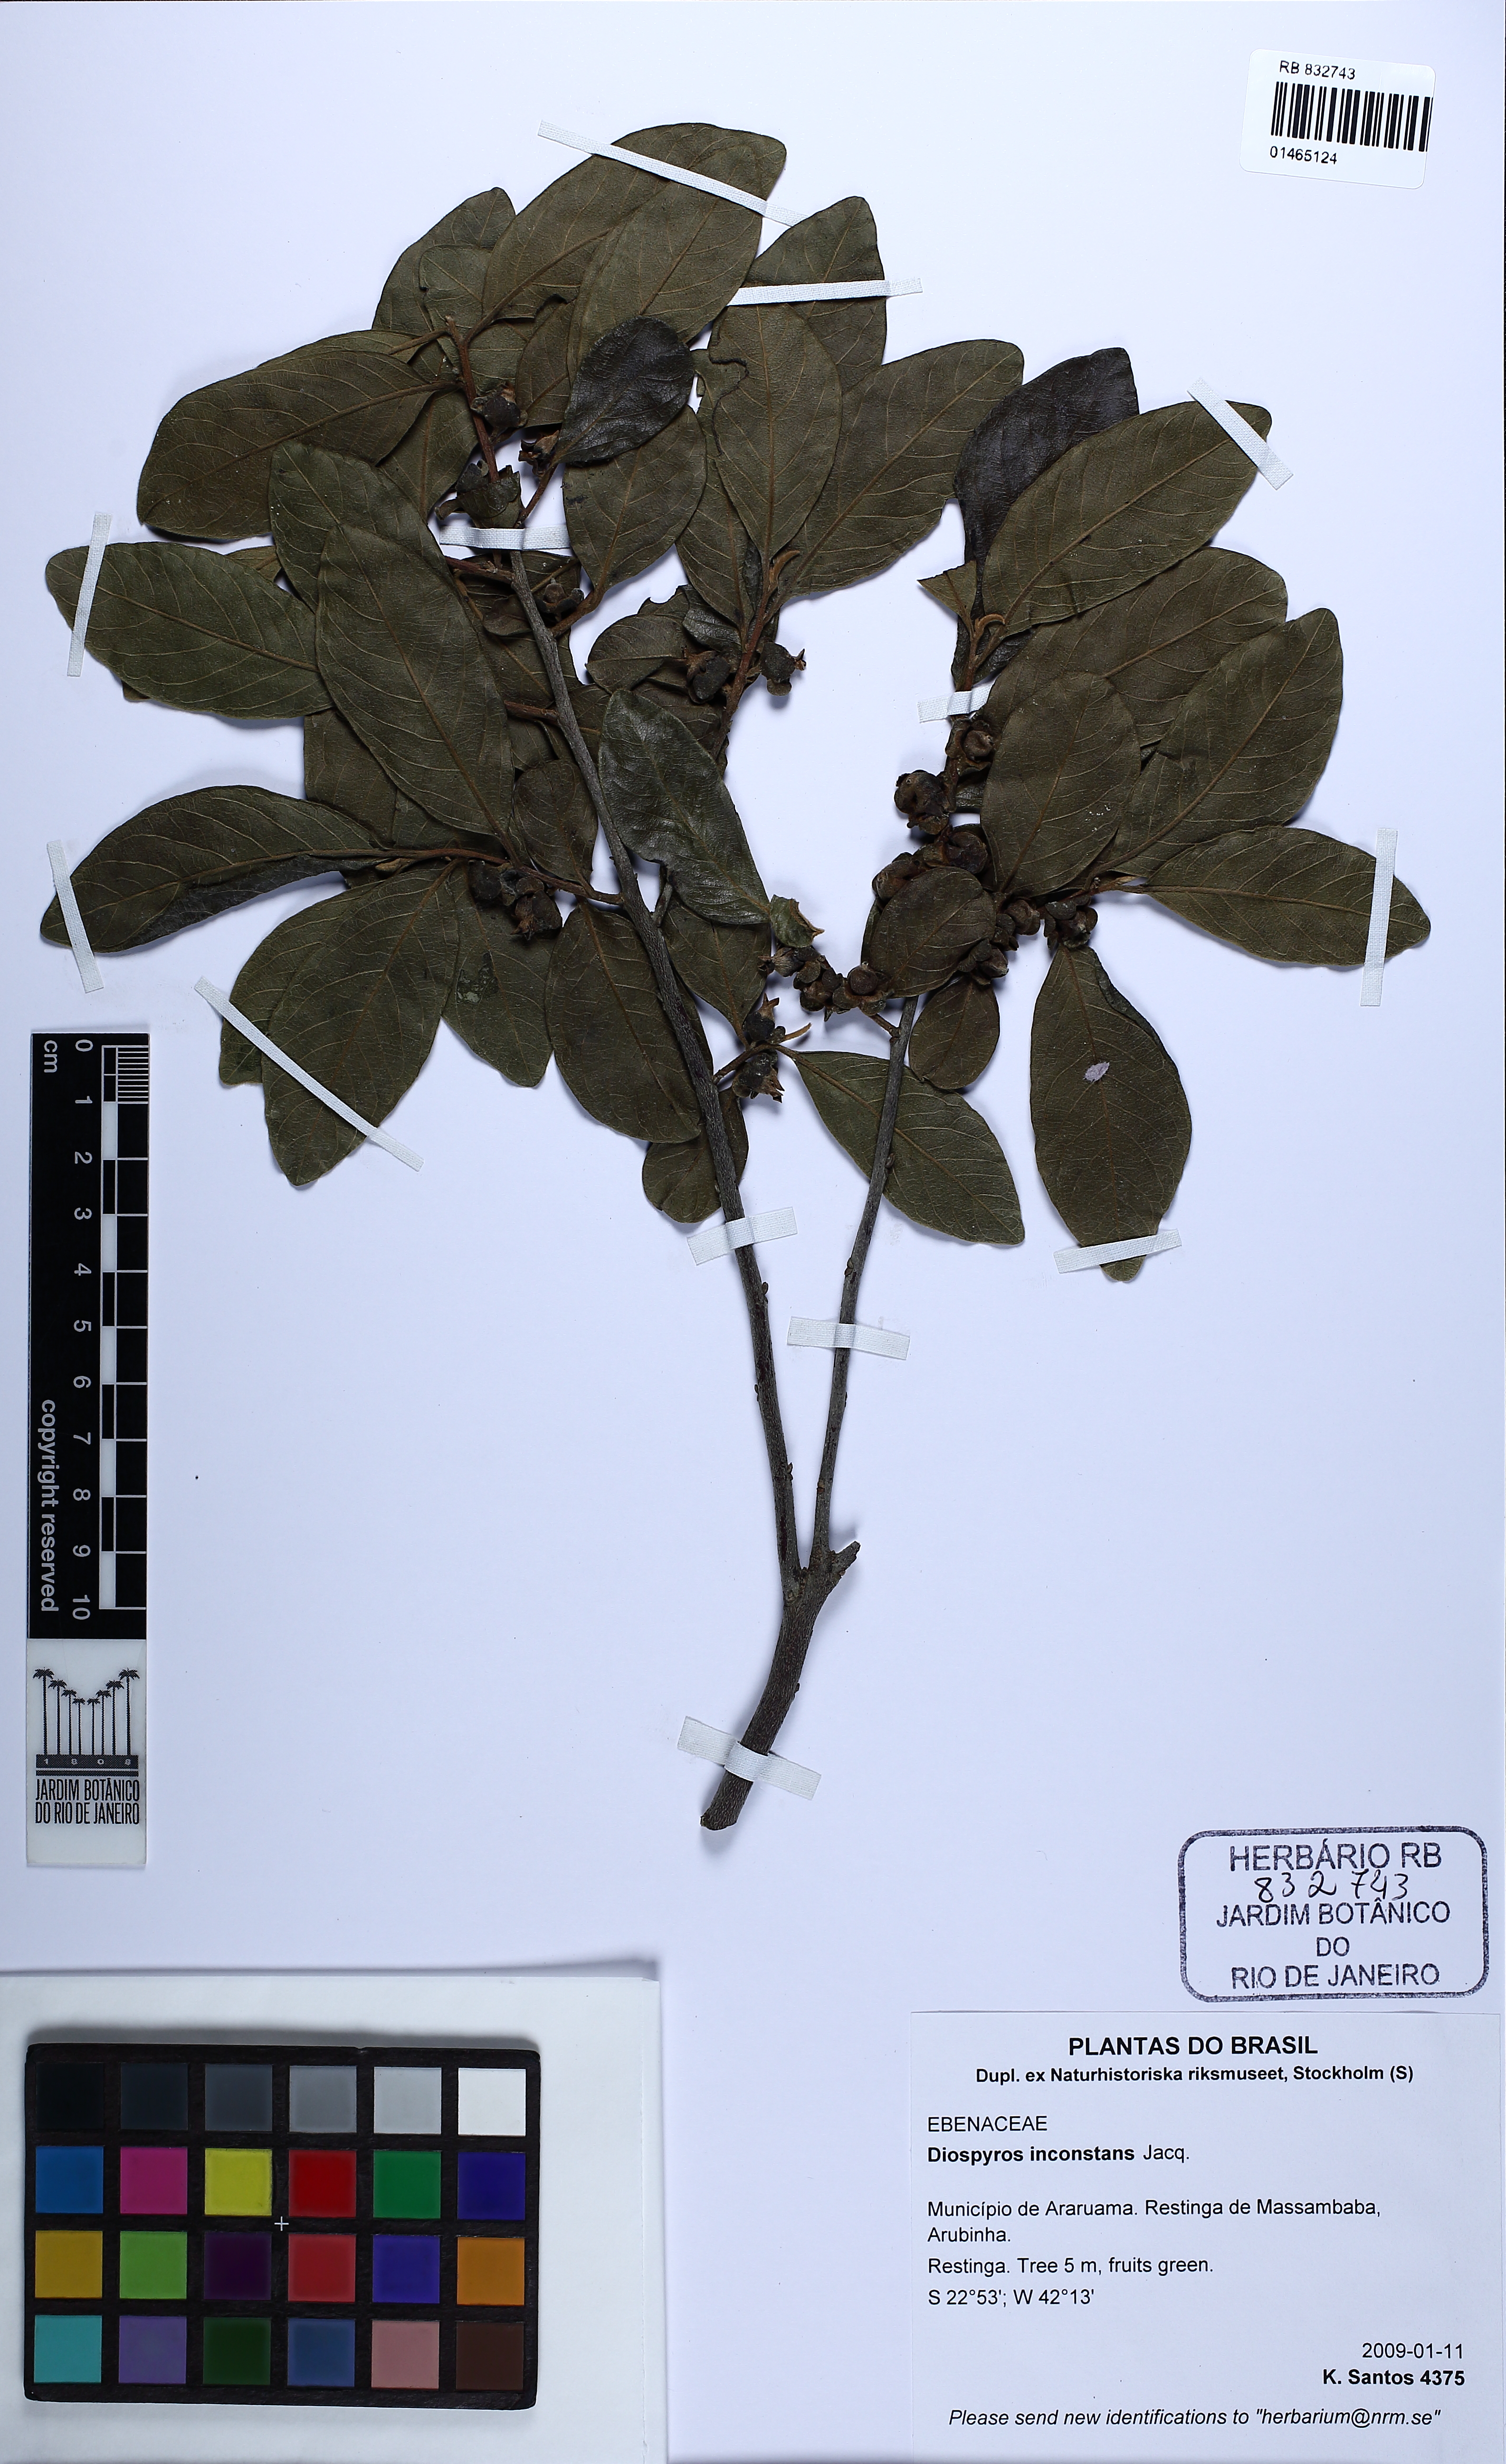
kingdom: Plantae
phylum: Tracheophyta
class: Magnoliopsida
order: Ericales
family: Ebenaceae
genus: Diospyros
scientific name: Diospyros inconstans
